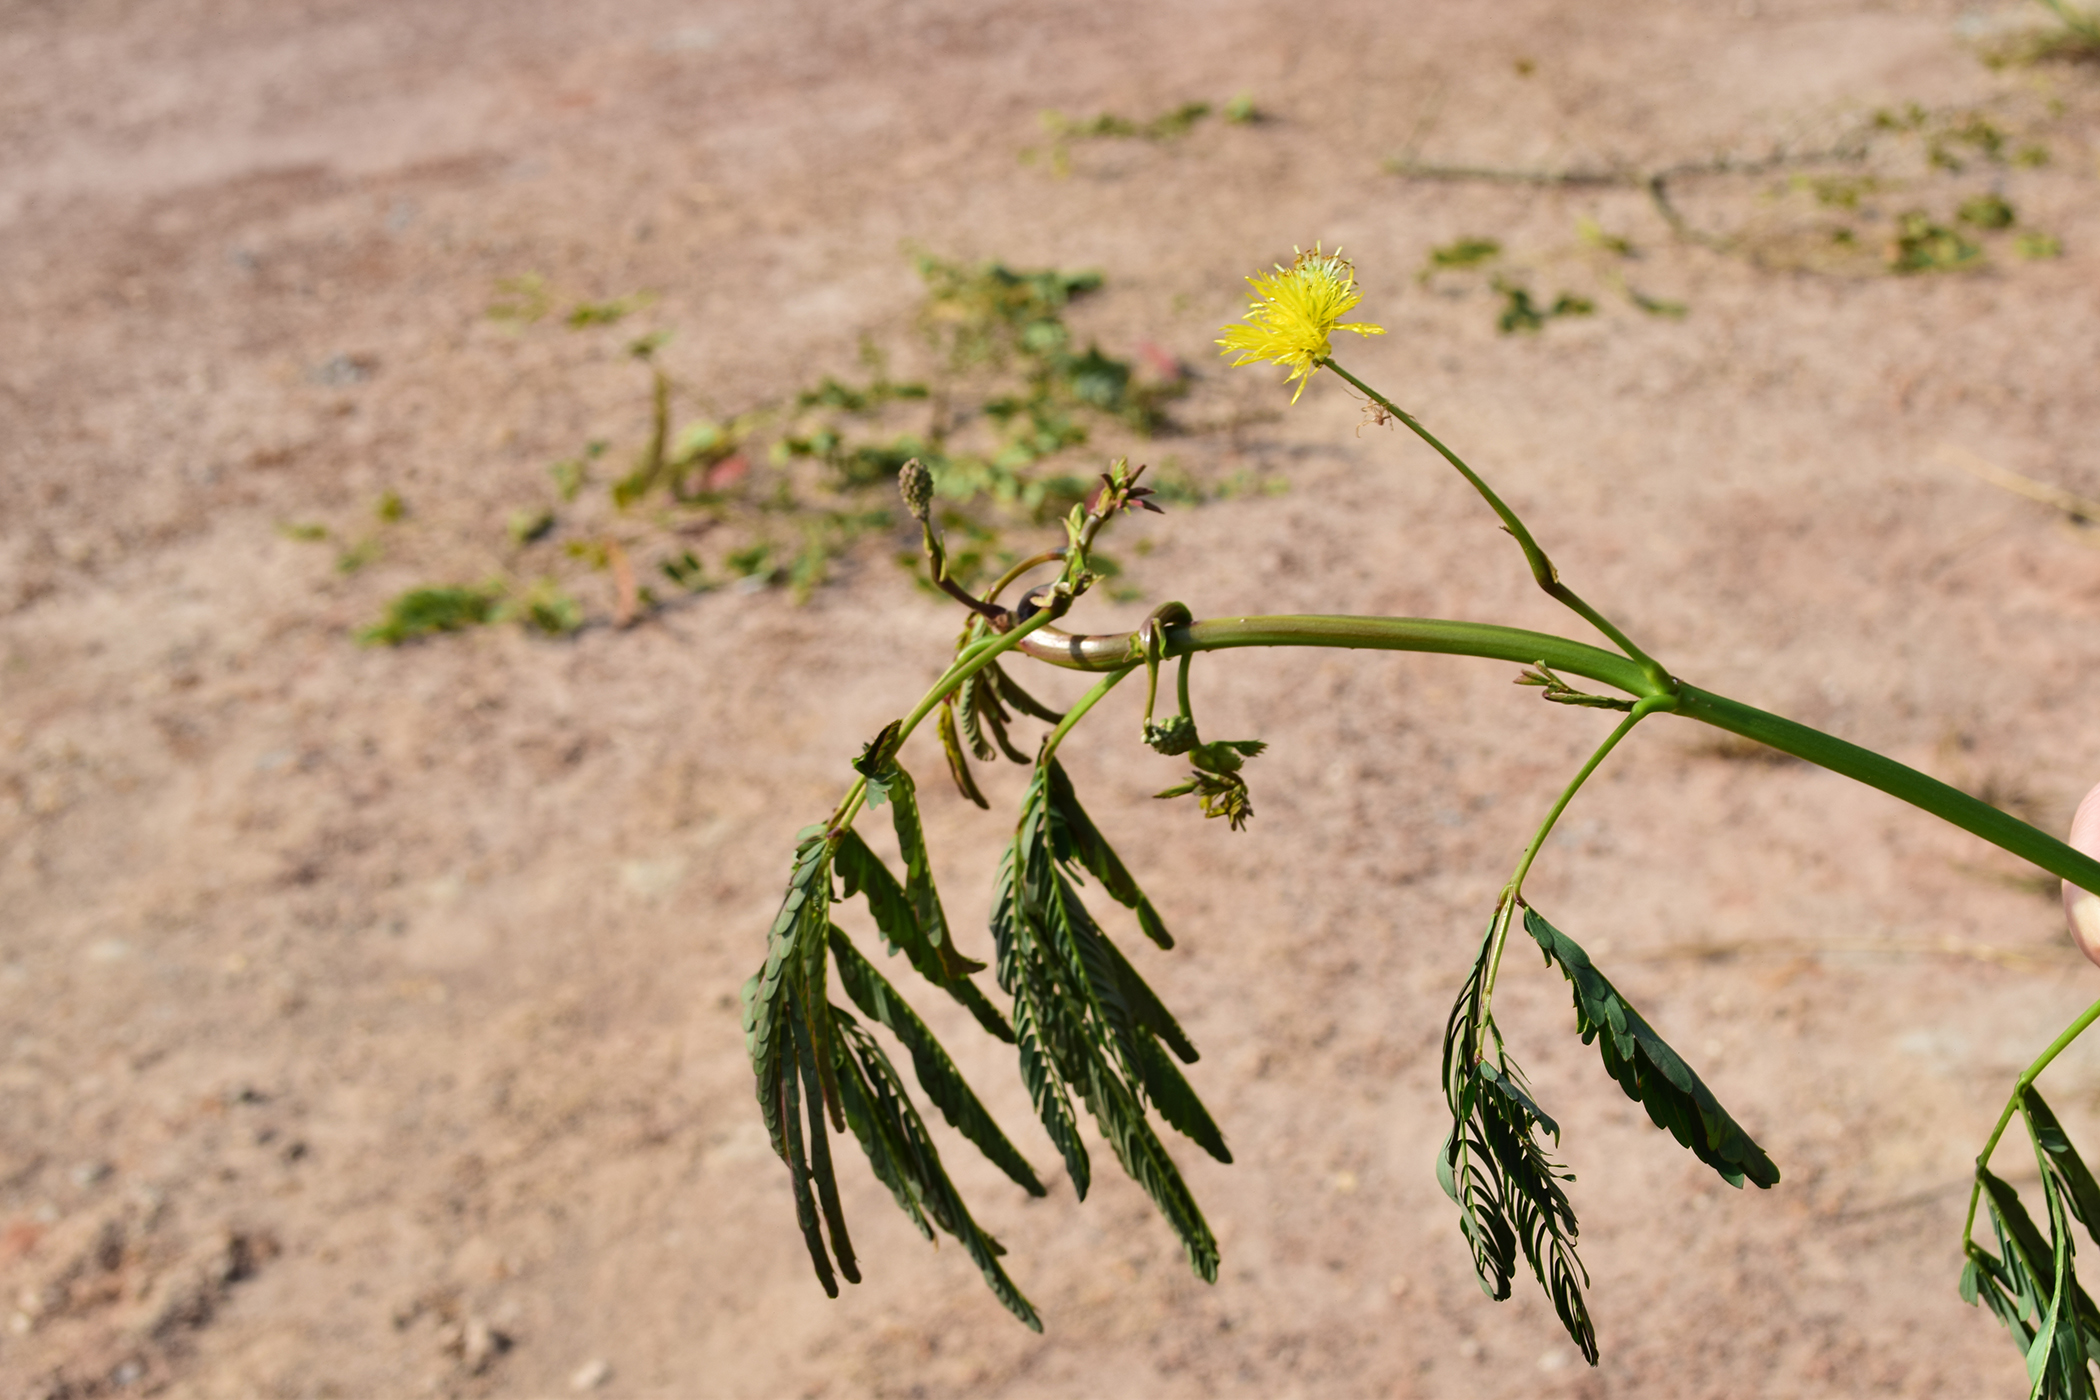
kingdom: Plantae
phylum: Tracheophyta
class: Magnoliopsida
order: Fabales
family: Fabaceae
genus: Neptunia
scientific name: Neptunia plena
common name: Dead and awake
